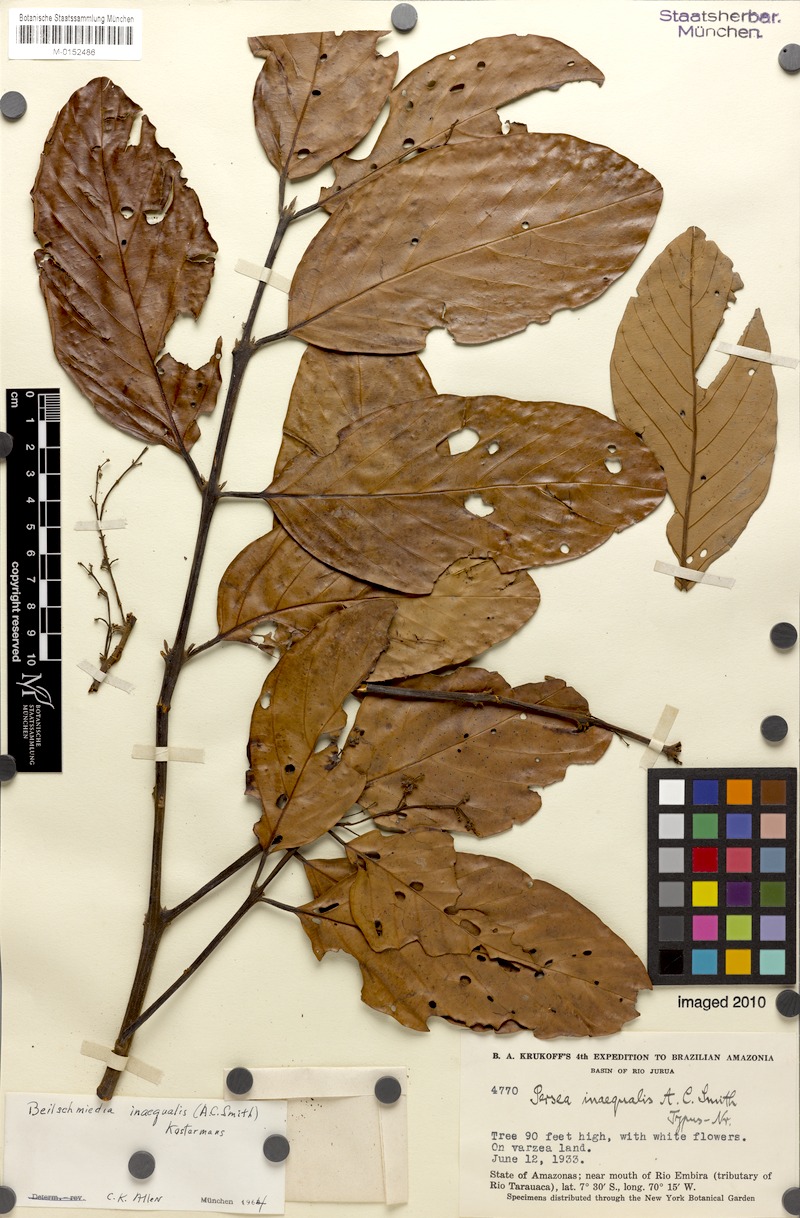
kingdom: Plantae
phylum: Tracheophyta
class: Magnoliopsida
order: Laurales
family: Lauraceae
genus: Caryodaphnopsis
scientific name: Caryodaphnopsis inaequalis
